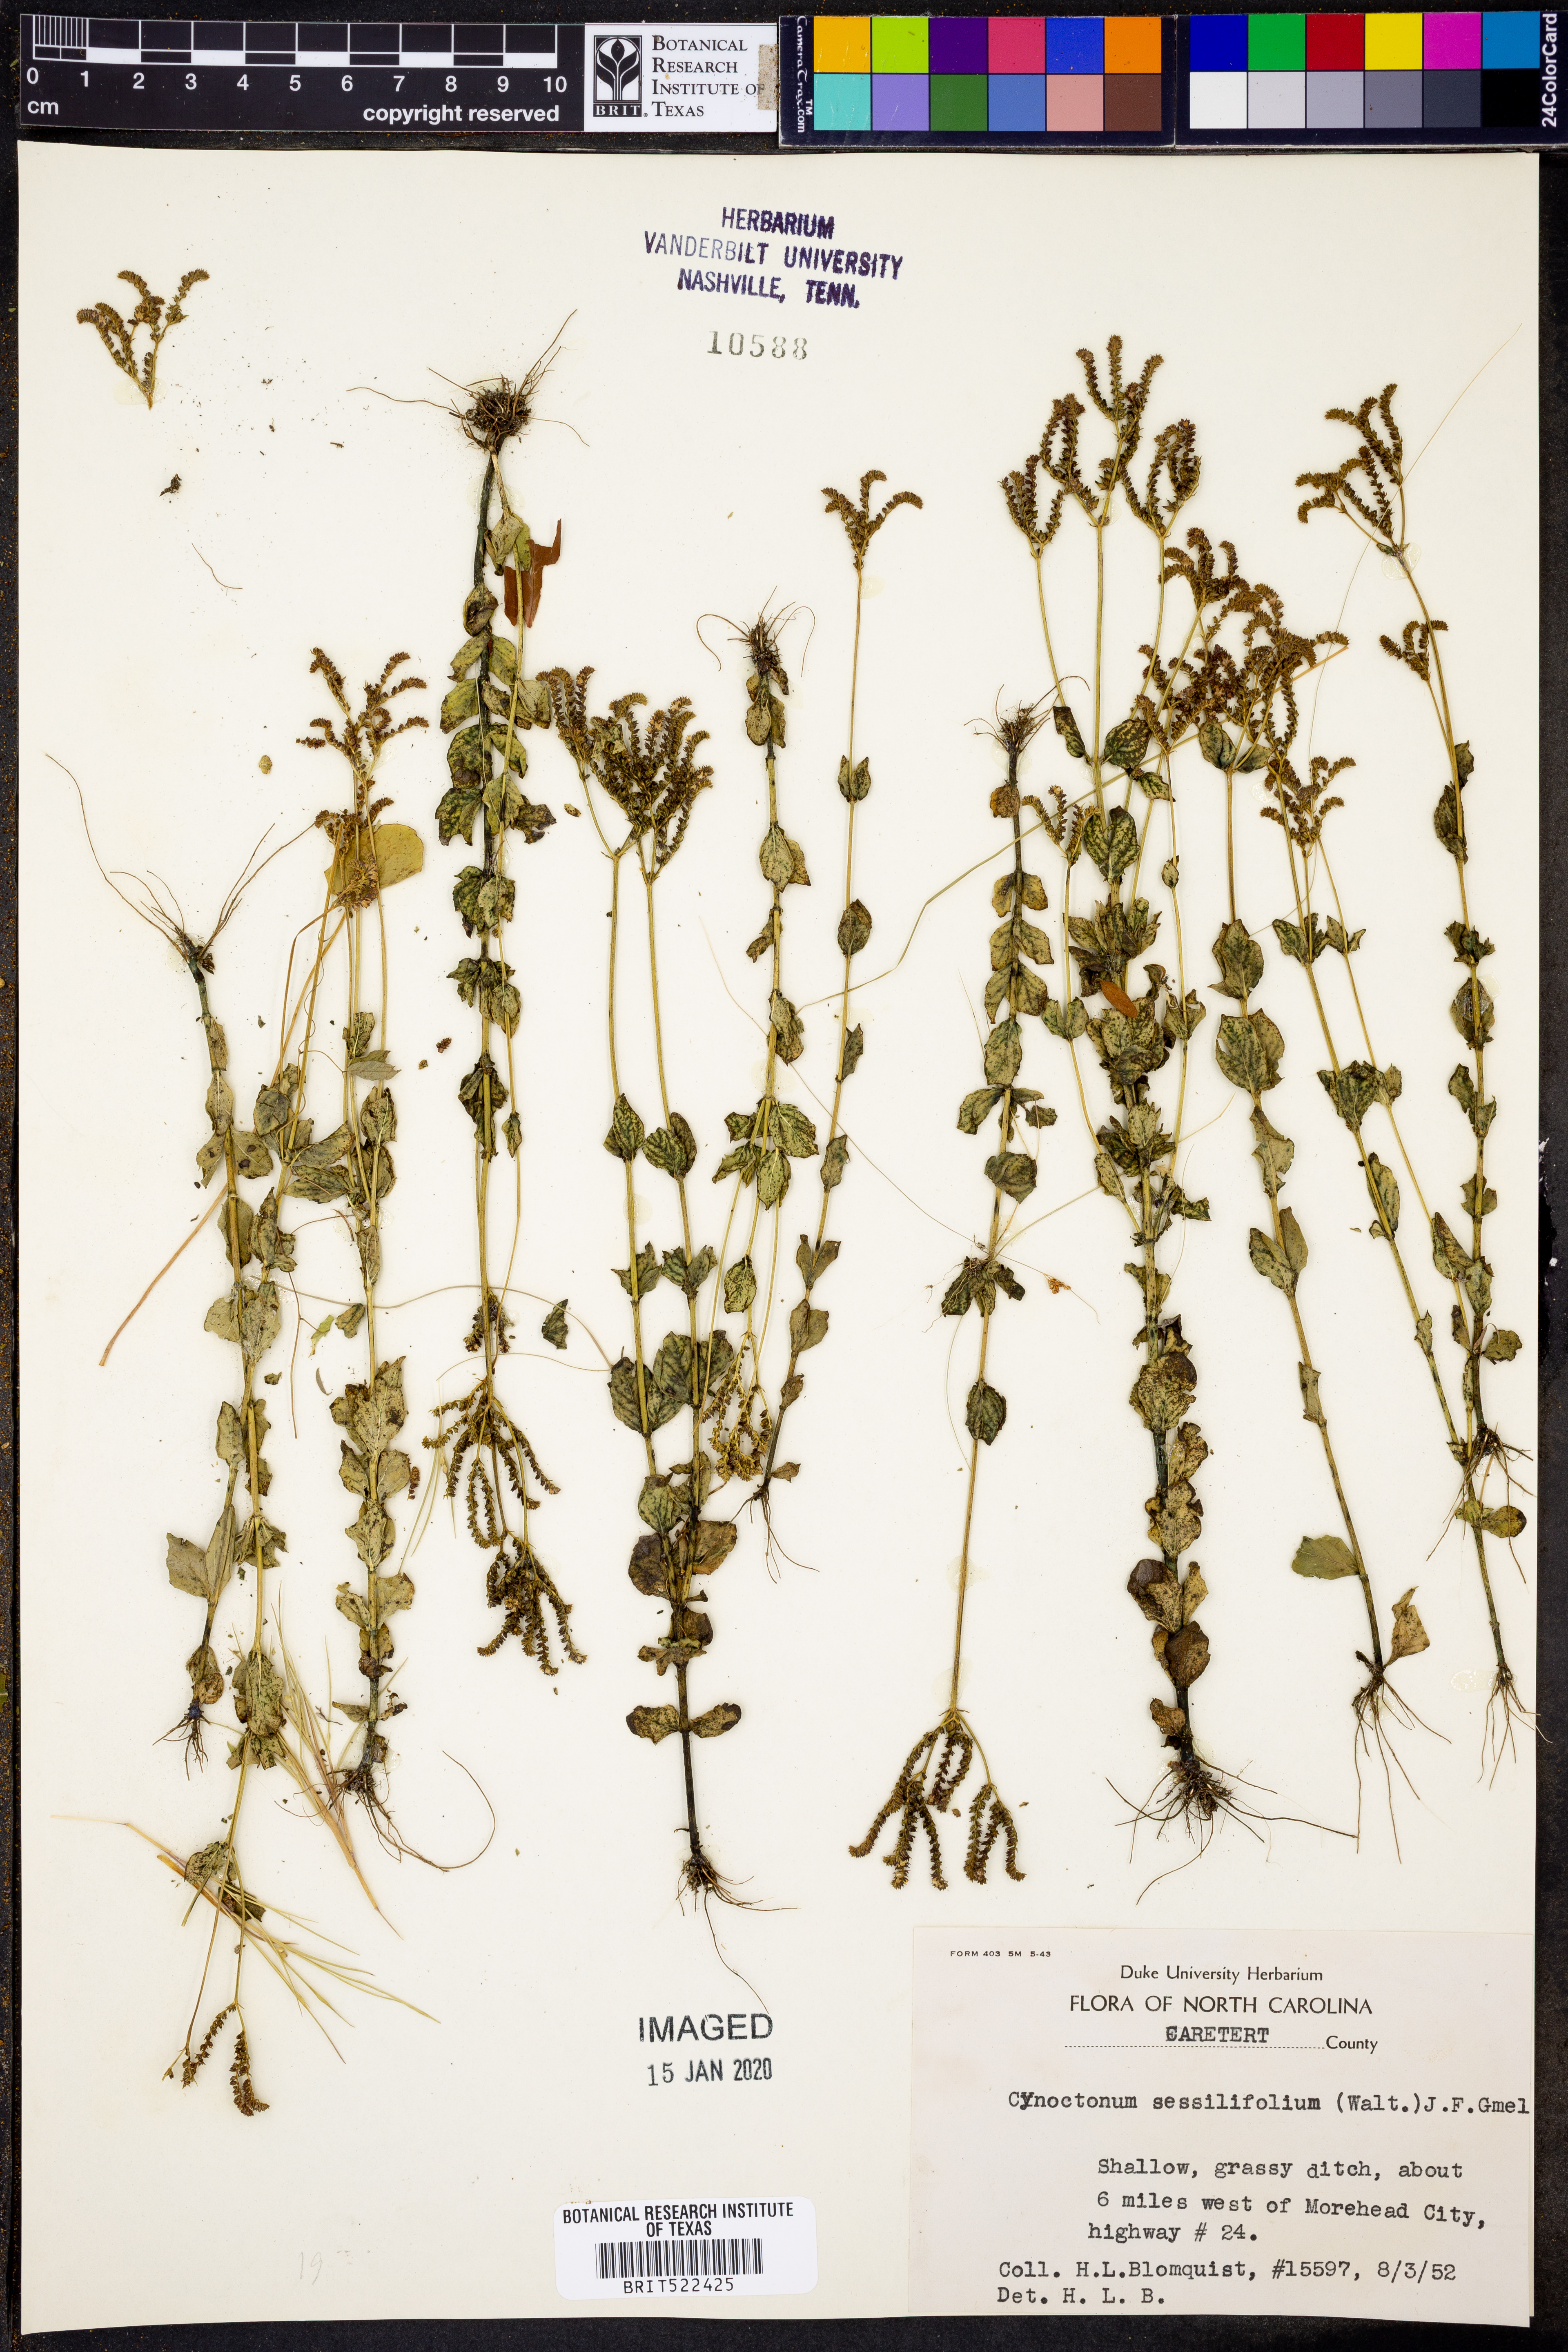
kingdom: Plantae
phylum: Tracheophyta
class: Magnoliopsida
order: Gentianales
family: Loganiaceae
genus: Mitreola
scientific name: Mitreola sessilifolia
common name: Swamp hornpod
